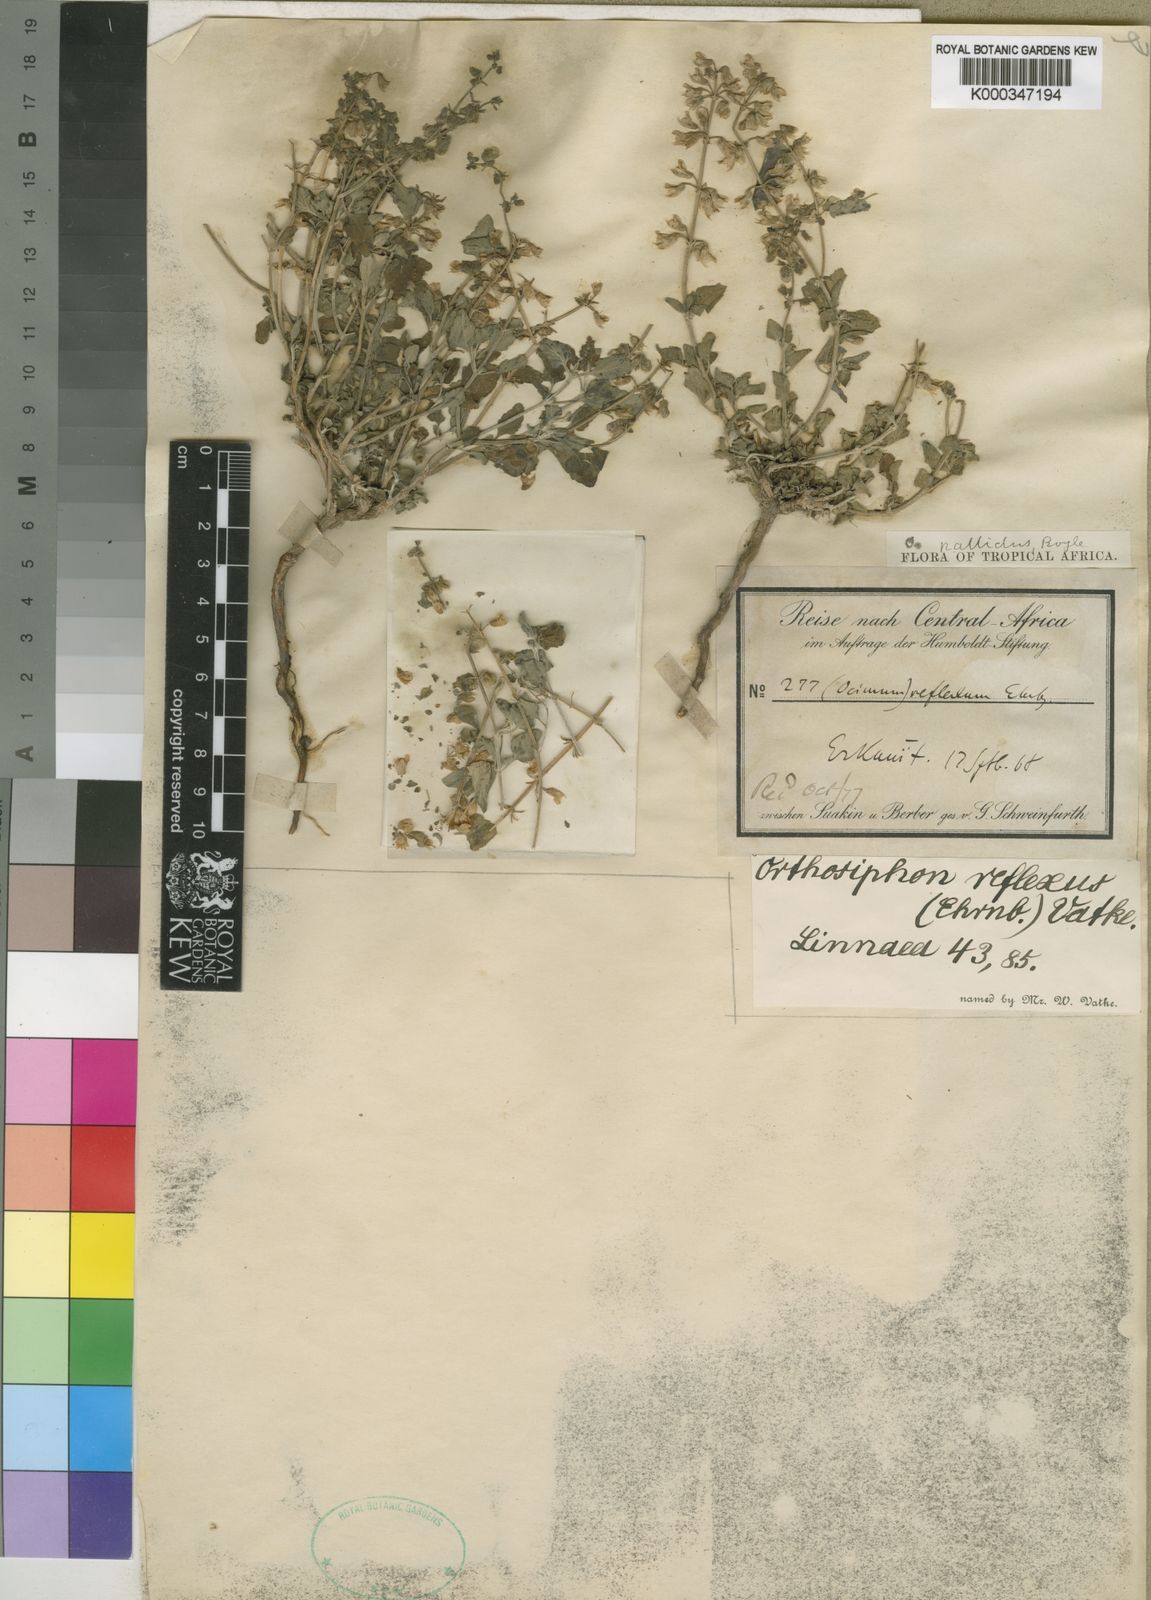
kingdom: Plantae
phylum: Tracheophyta
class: Magnoliopsida
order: Lamiales
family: Lamiaceae
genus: Orthosiphon
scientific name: Orthosiphon pallidus
